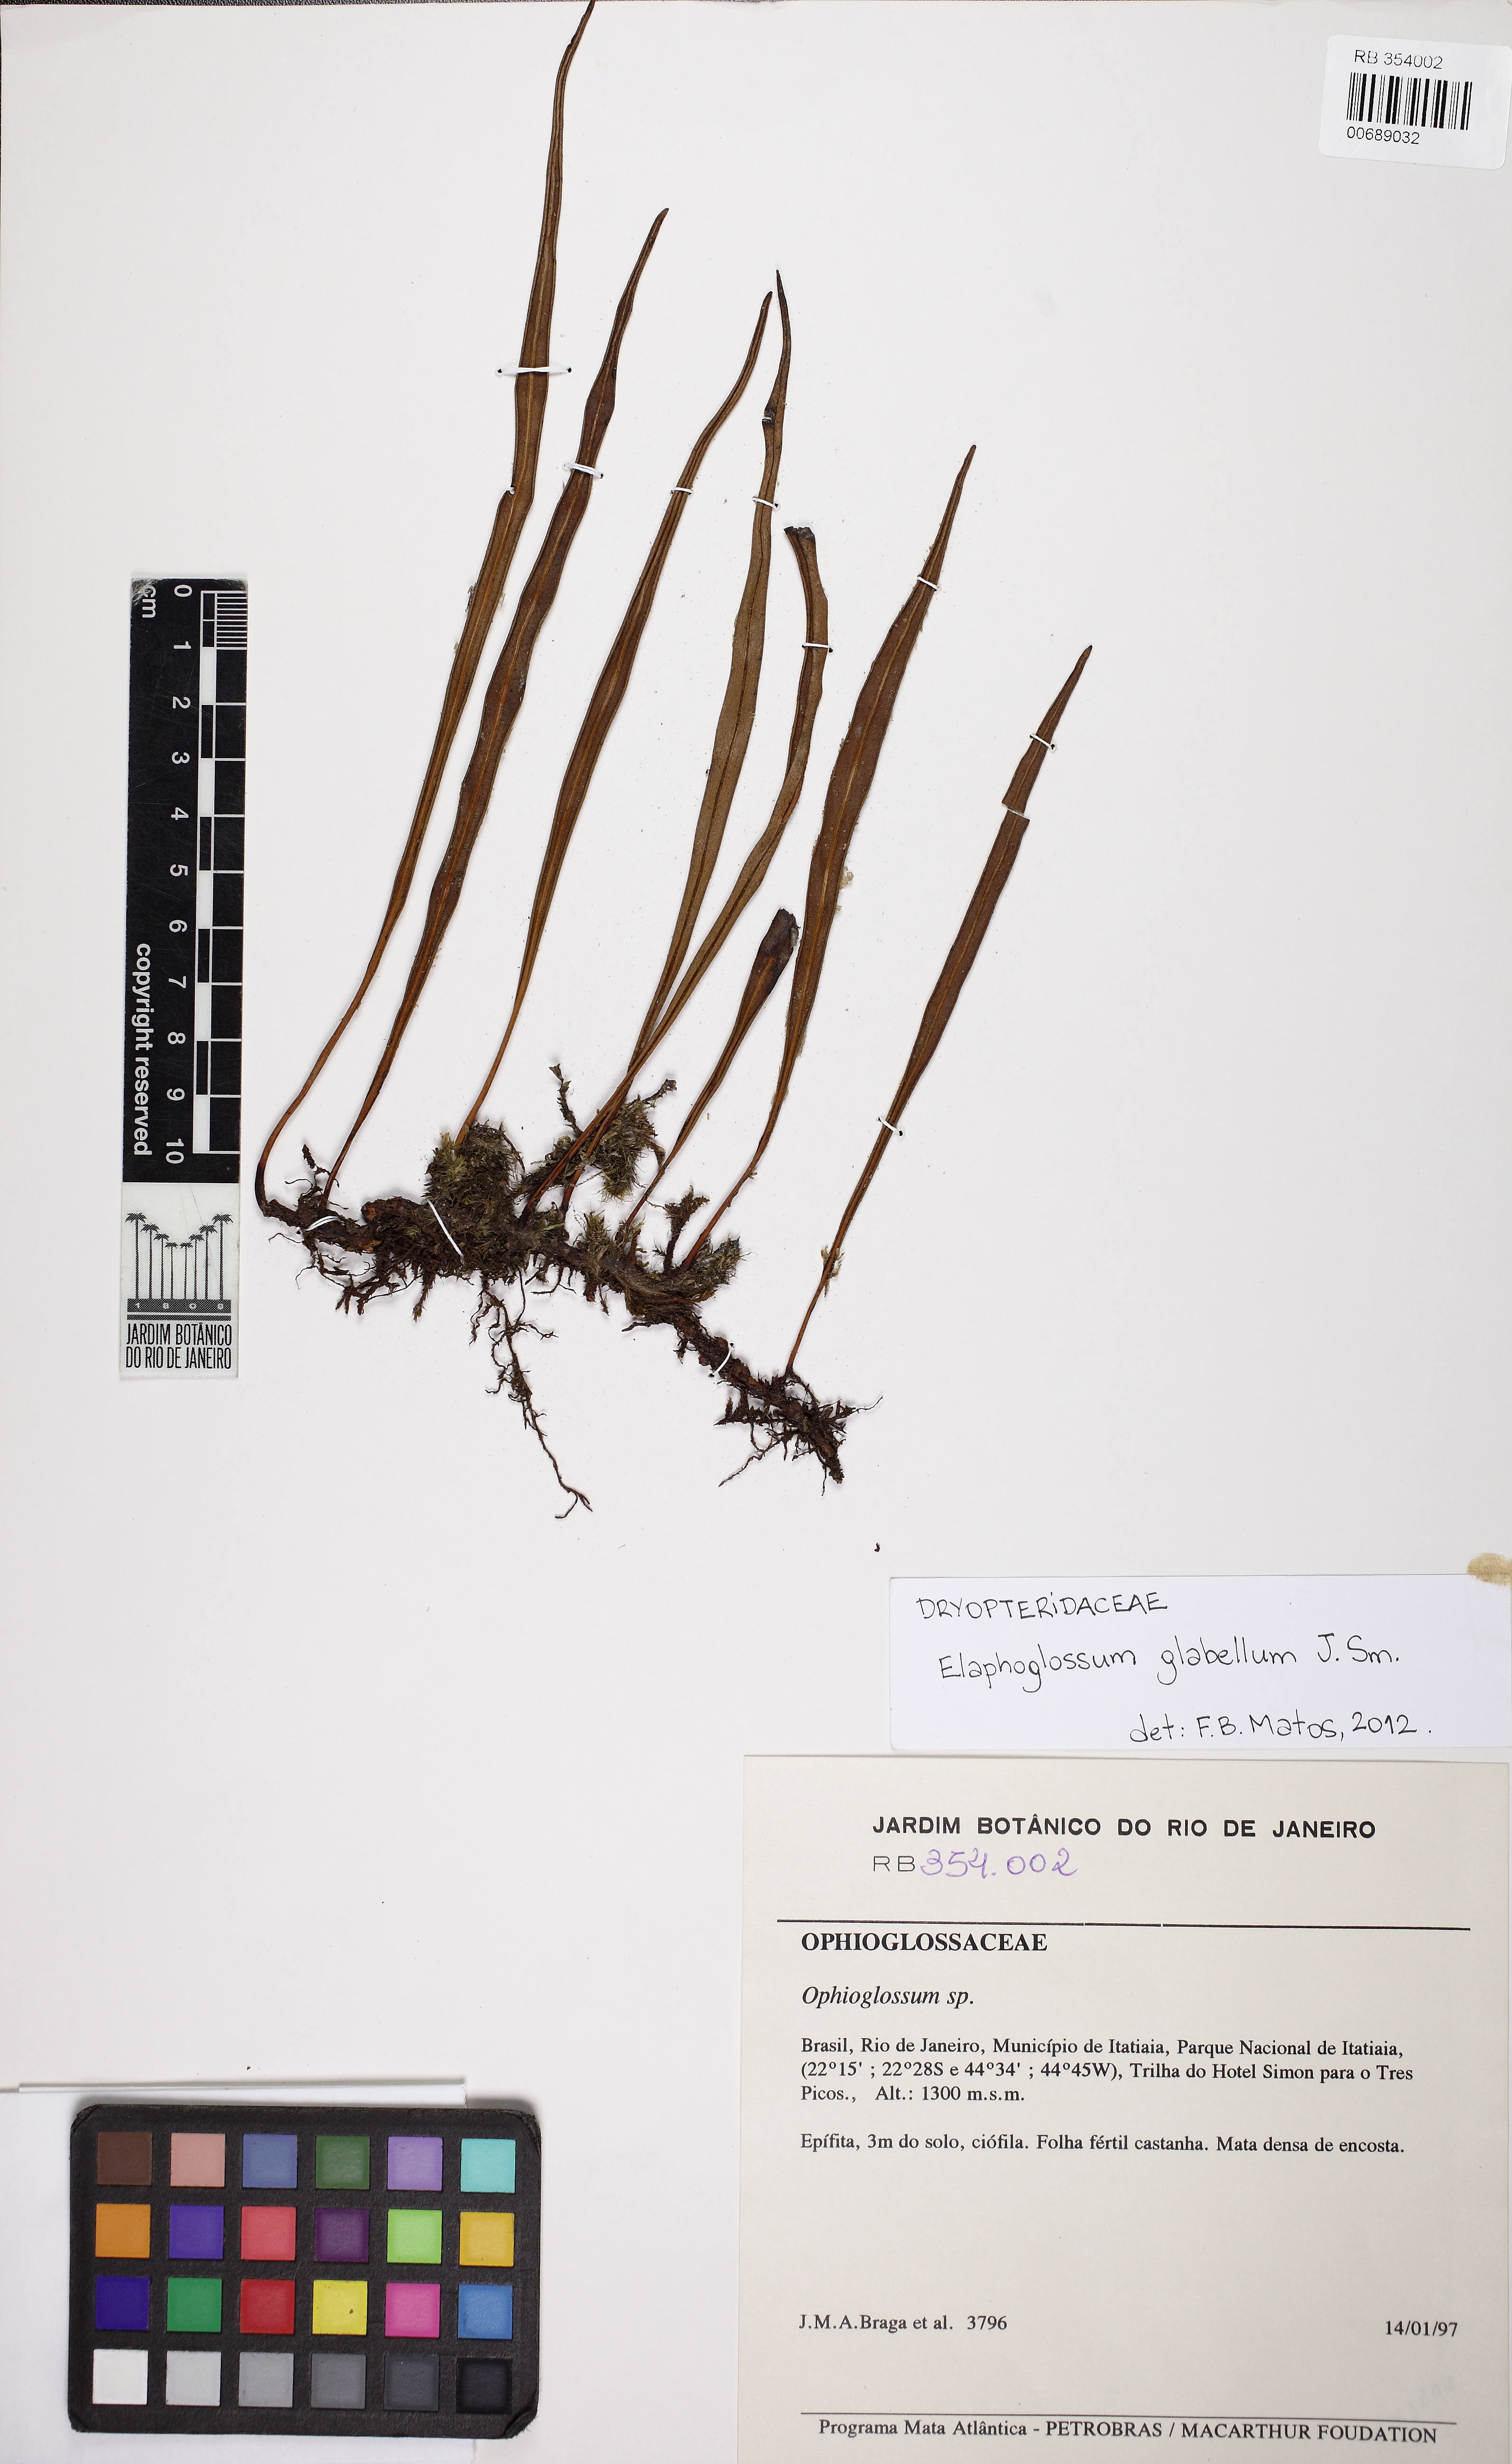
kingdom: Plantae
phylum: Tracheophyta
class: Polypodiopsida
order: Polypodiales
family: Dryopteridaceae
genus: Elaphoglossum
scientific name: Elaphoglossum glabellum
